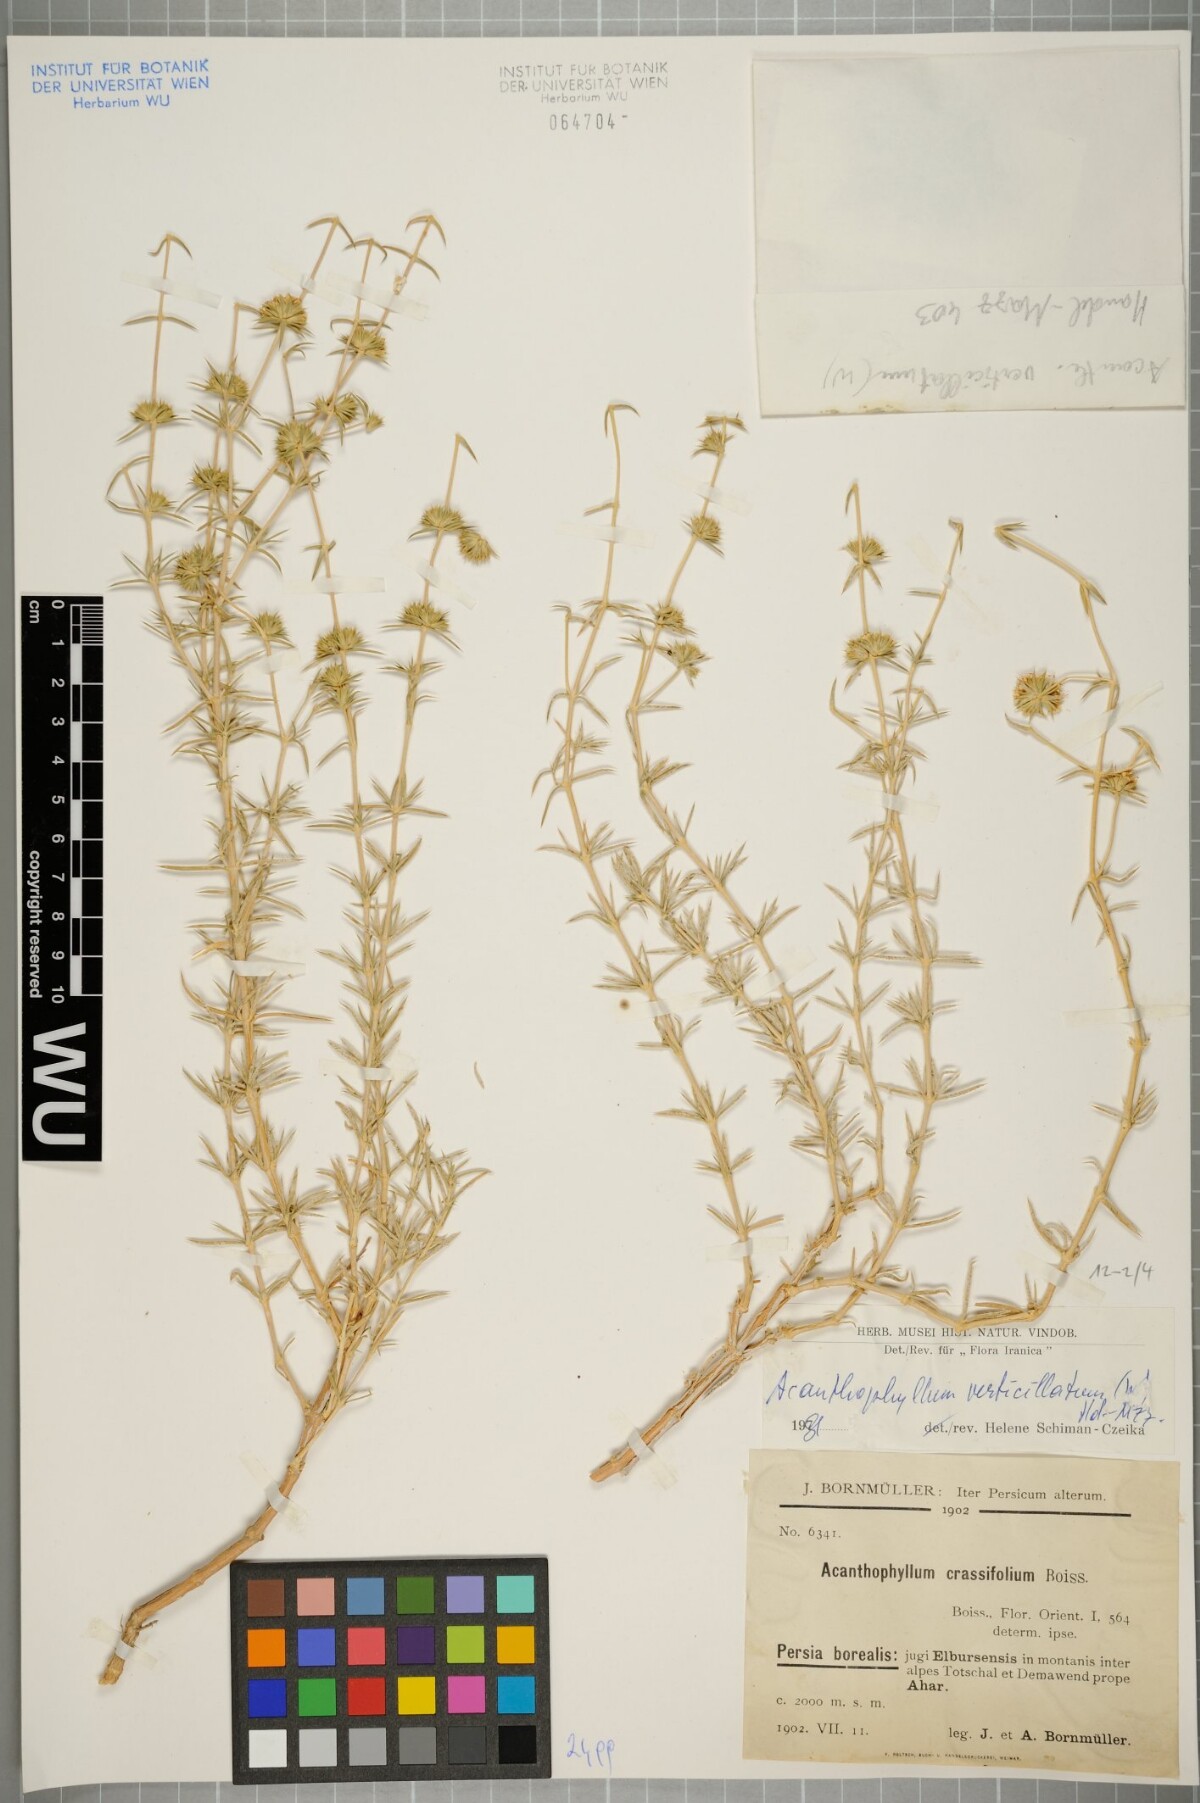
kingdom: Plantae
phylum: Tracheophyta
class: Magnoliopsida
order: Caryophyllales
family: Caryophyllaceae
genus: Acanthophyllum
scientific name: Acanthophyllum verticillatum
